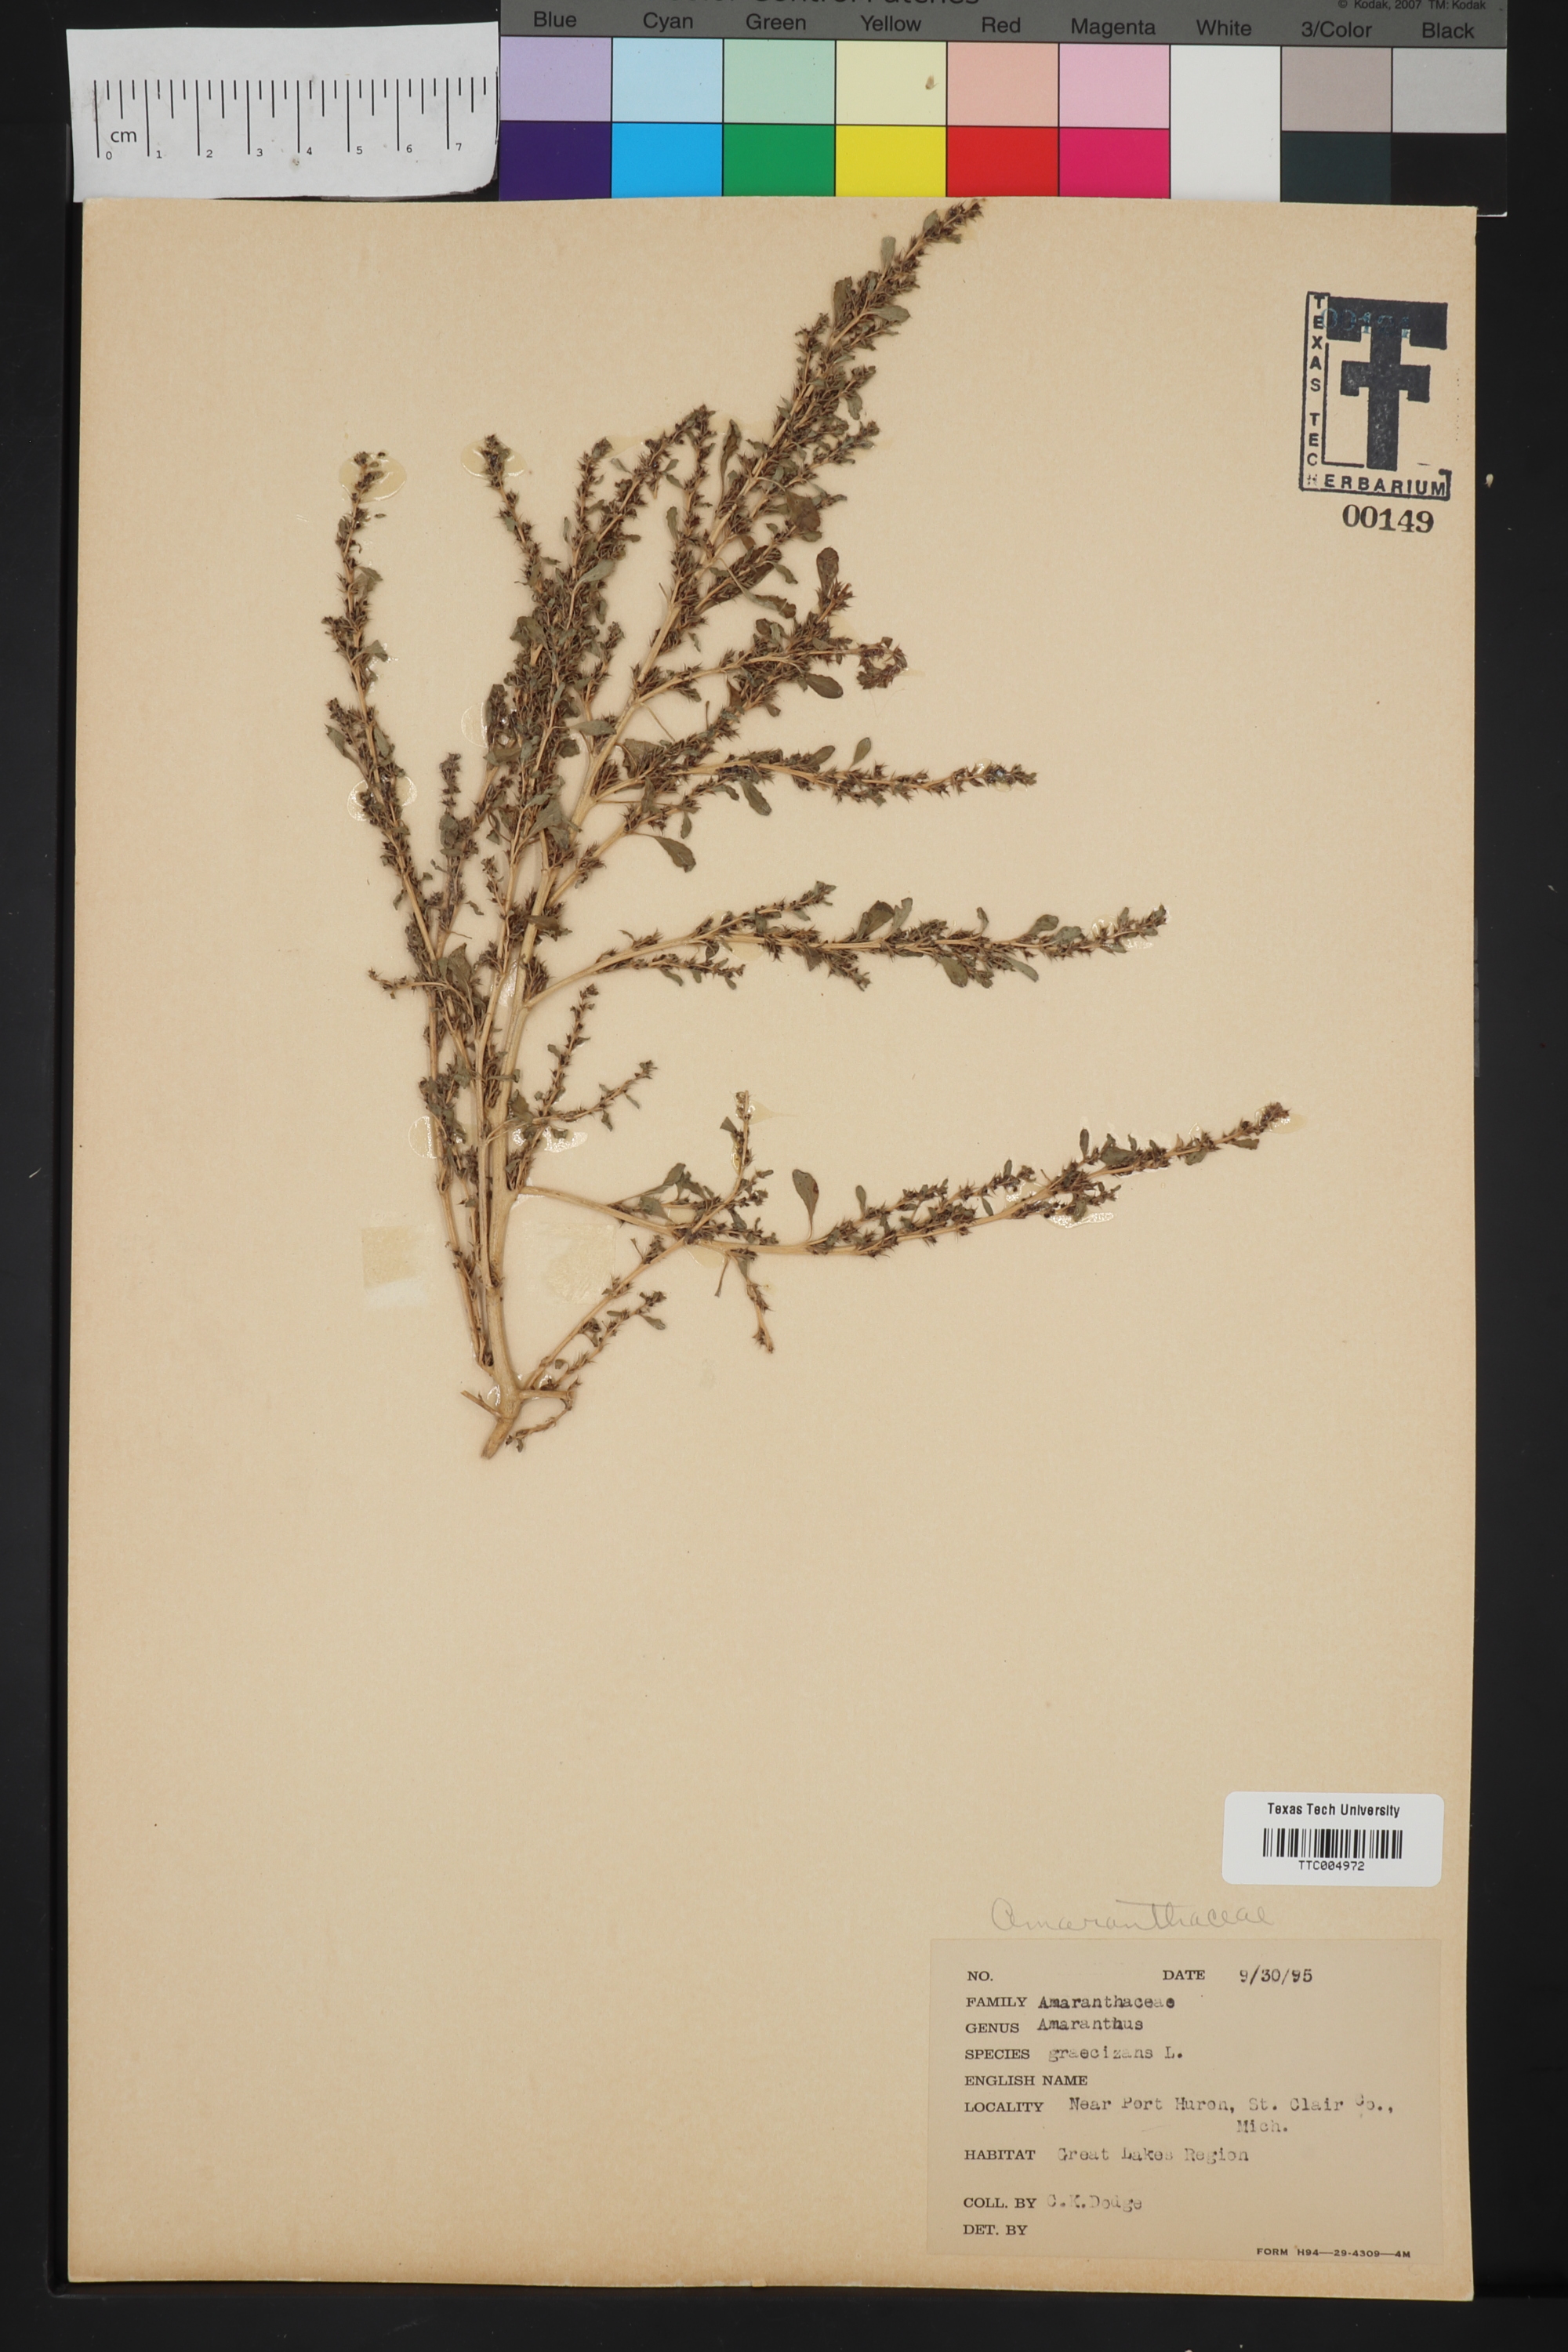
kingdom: Plantae
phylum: Tracheophyta
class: Magnoliopsida
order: Caryophyllales
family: Amaranthaceae
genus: Amaranthus
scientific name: Amaranthus graecizans
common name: Mediterranean amaranth
